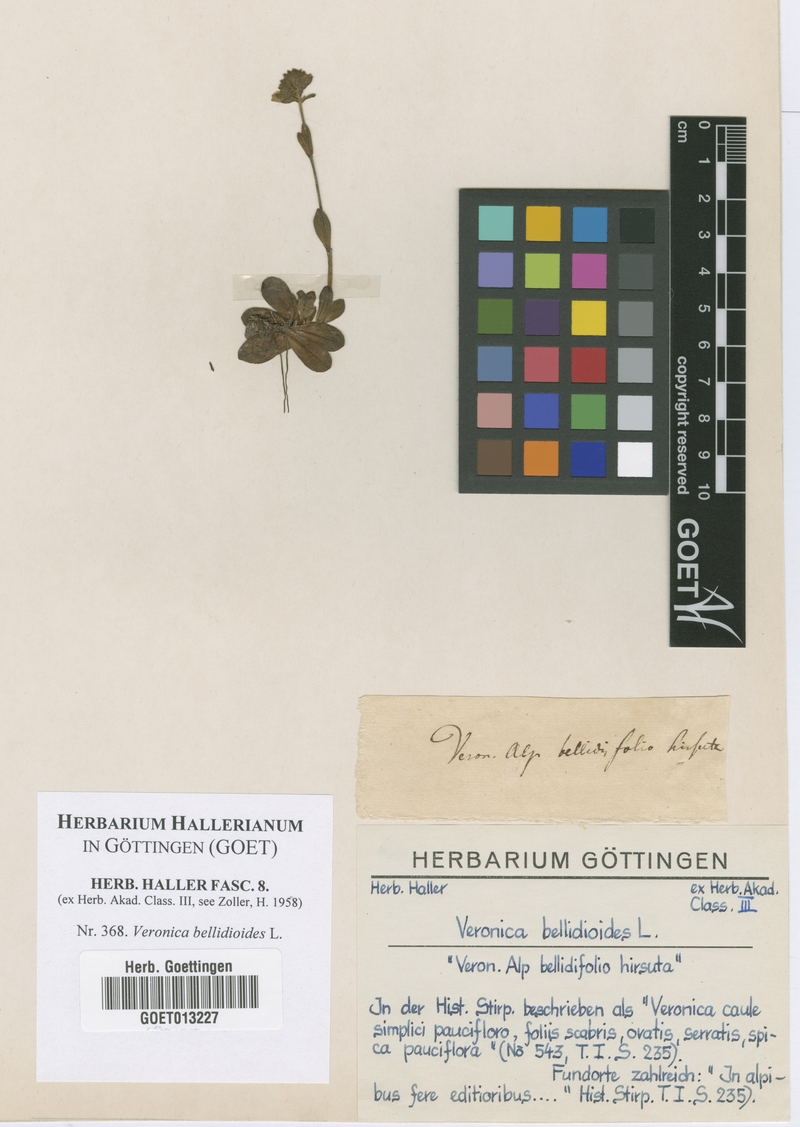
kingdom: Plantae
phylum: Tracheophyta
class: Magnoliopsida
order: Lamiales
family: Plantaginaceae
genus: Veronica
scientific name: Veronica bellidioides
